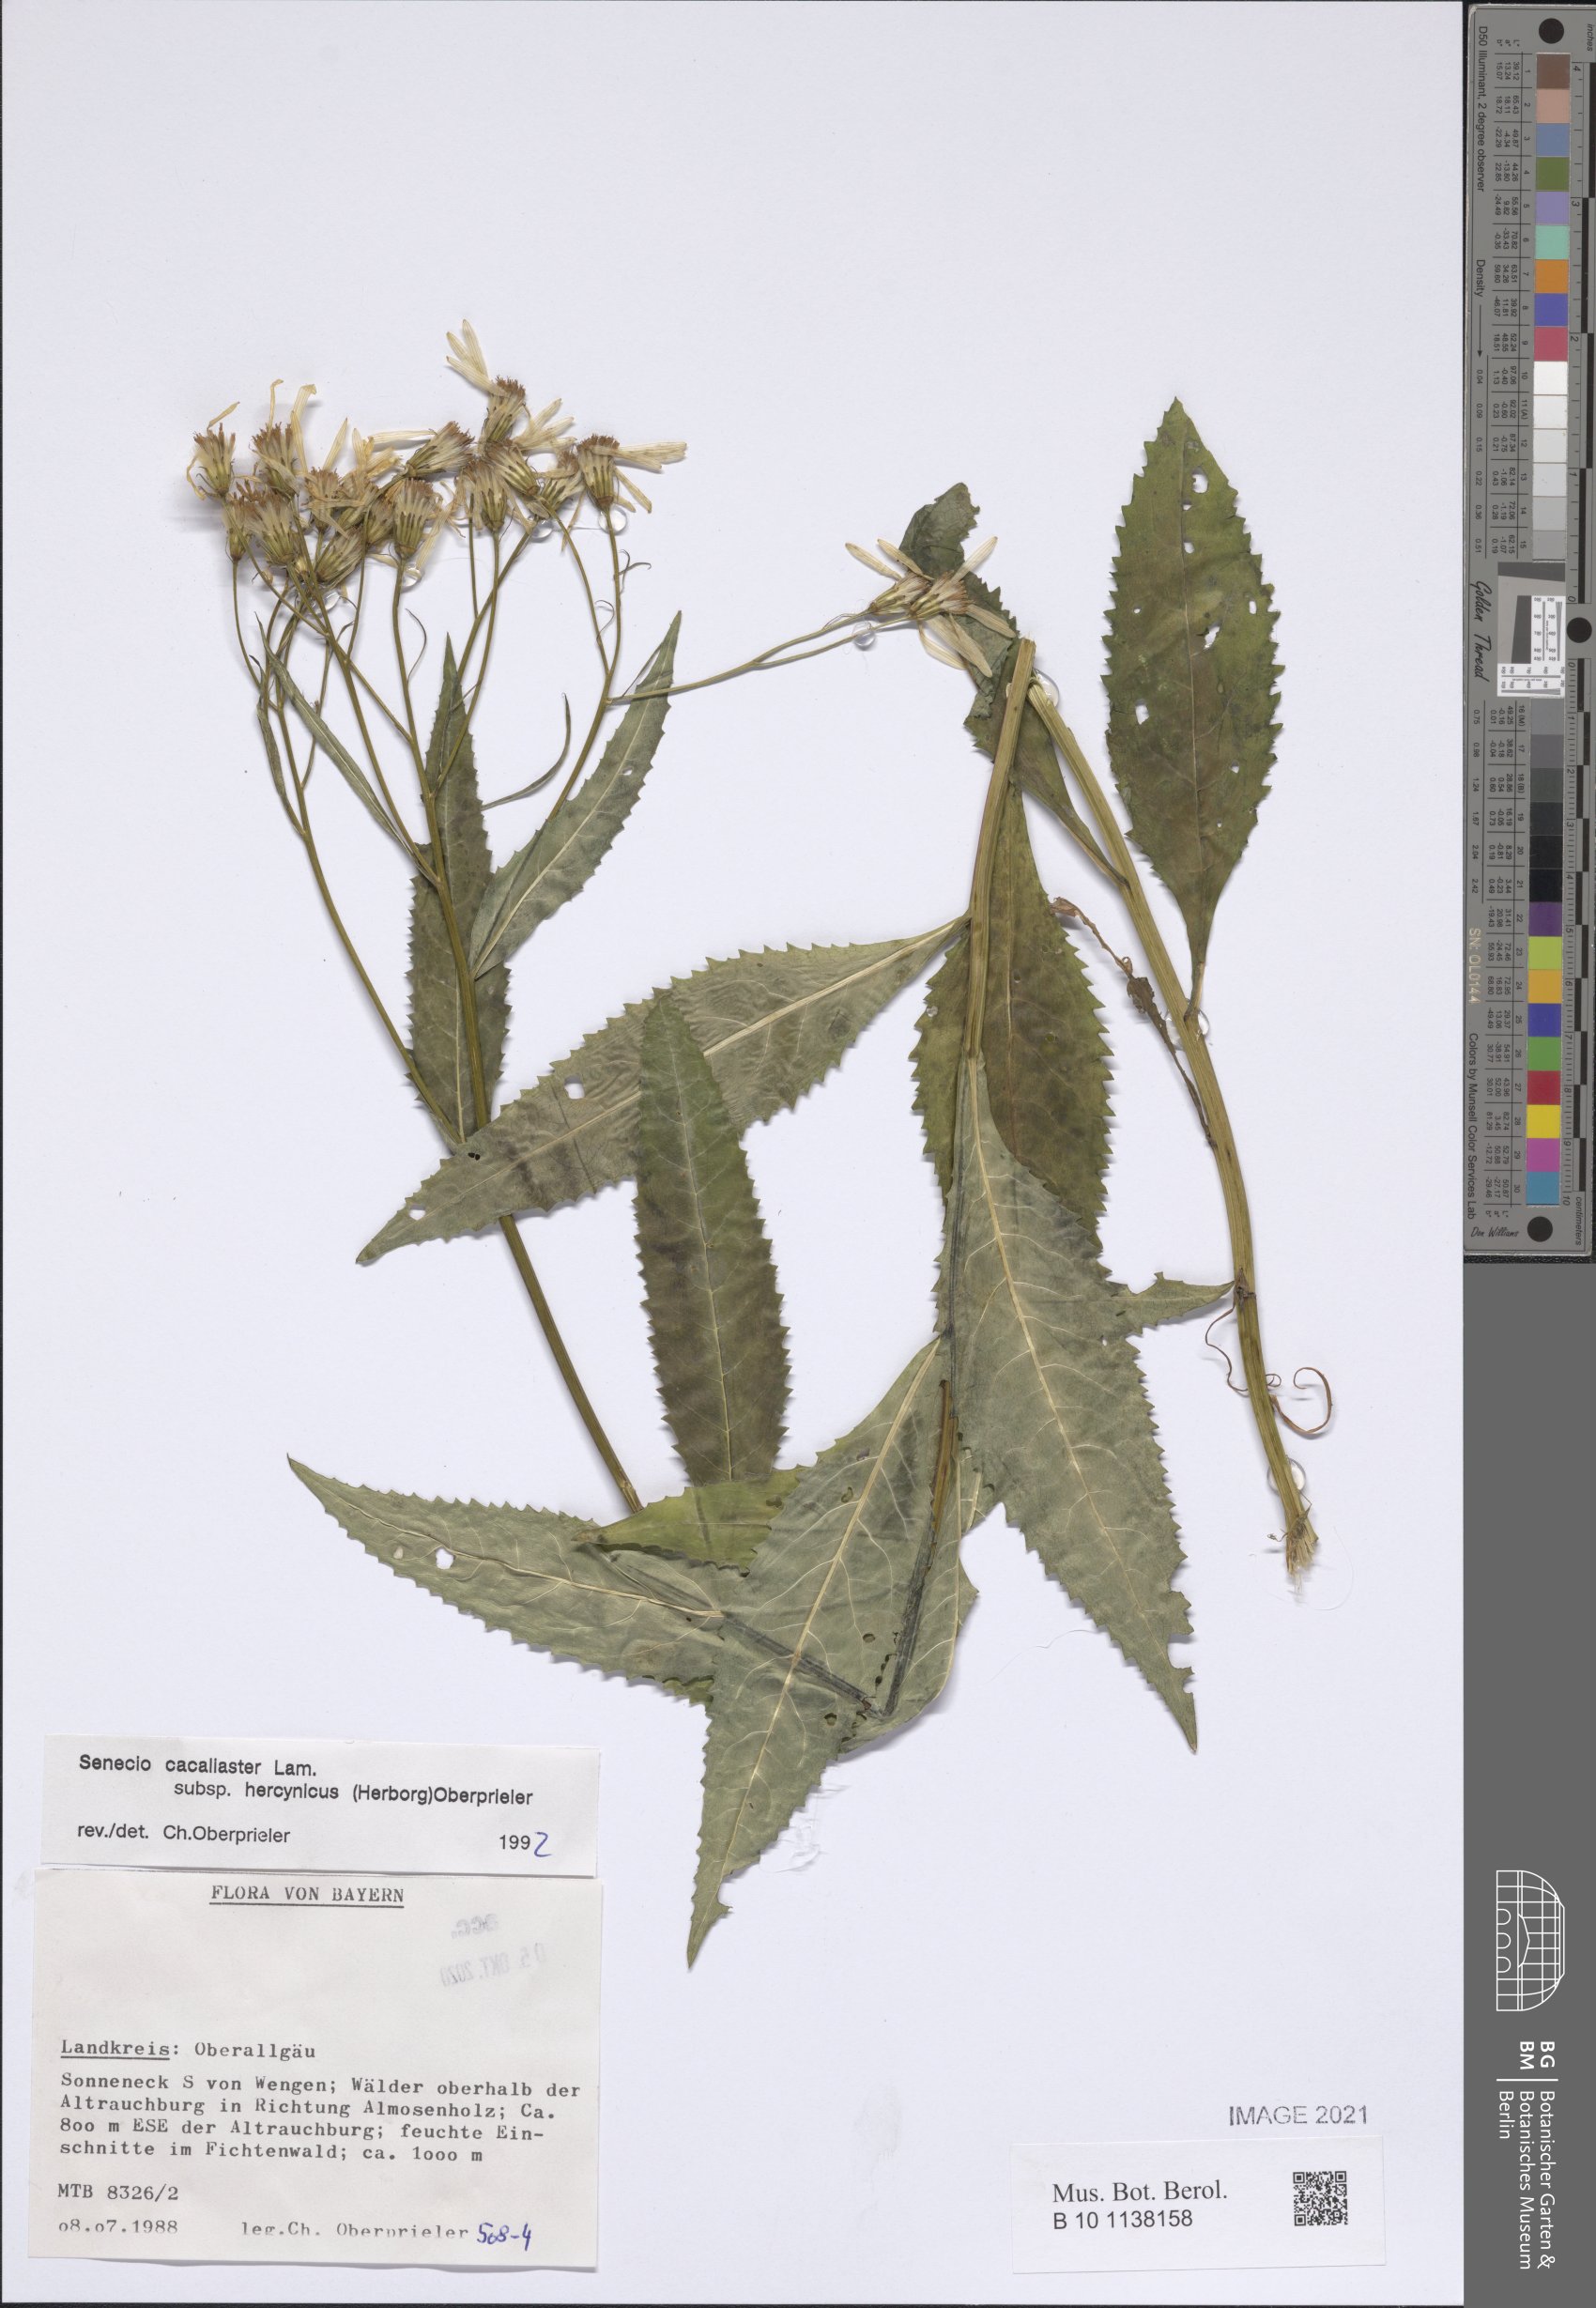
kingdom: Plantae
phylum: Tracheophyta
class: Magnoliopsida
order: Asterales
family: Asteraceae
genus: Senecio
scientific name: Senecio hercynicus
